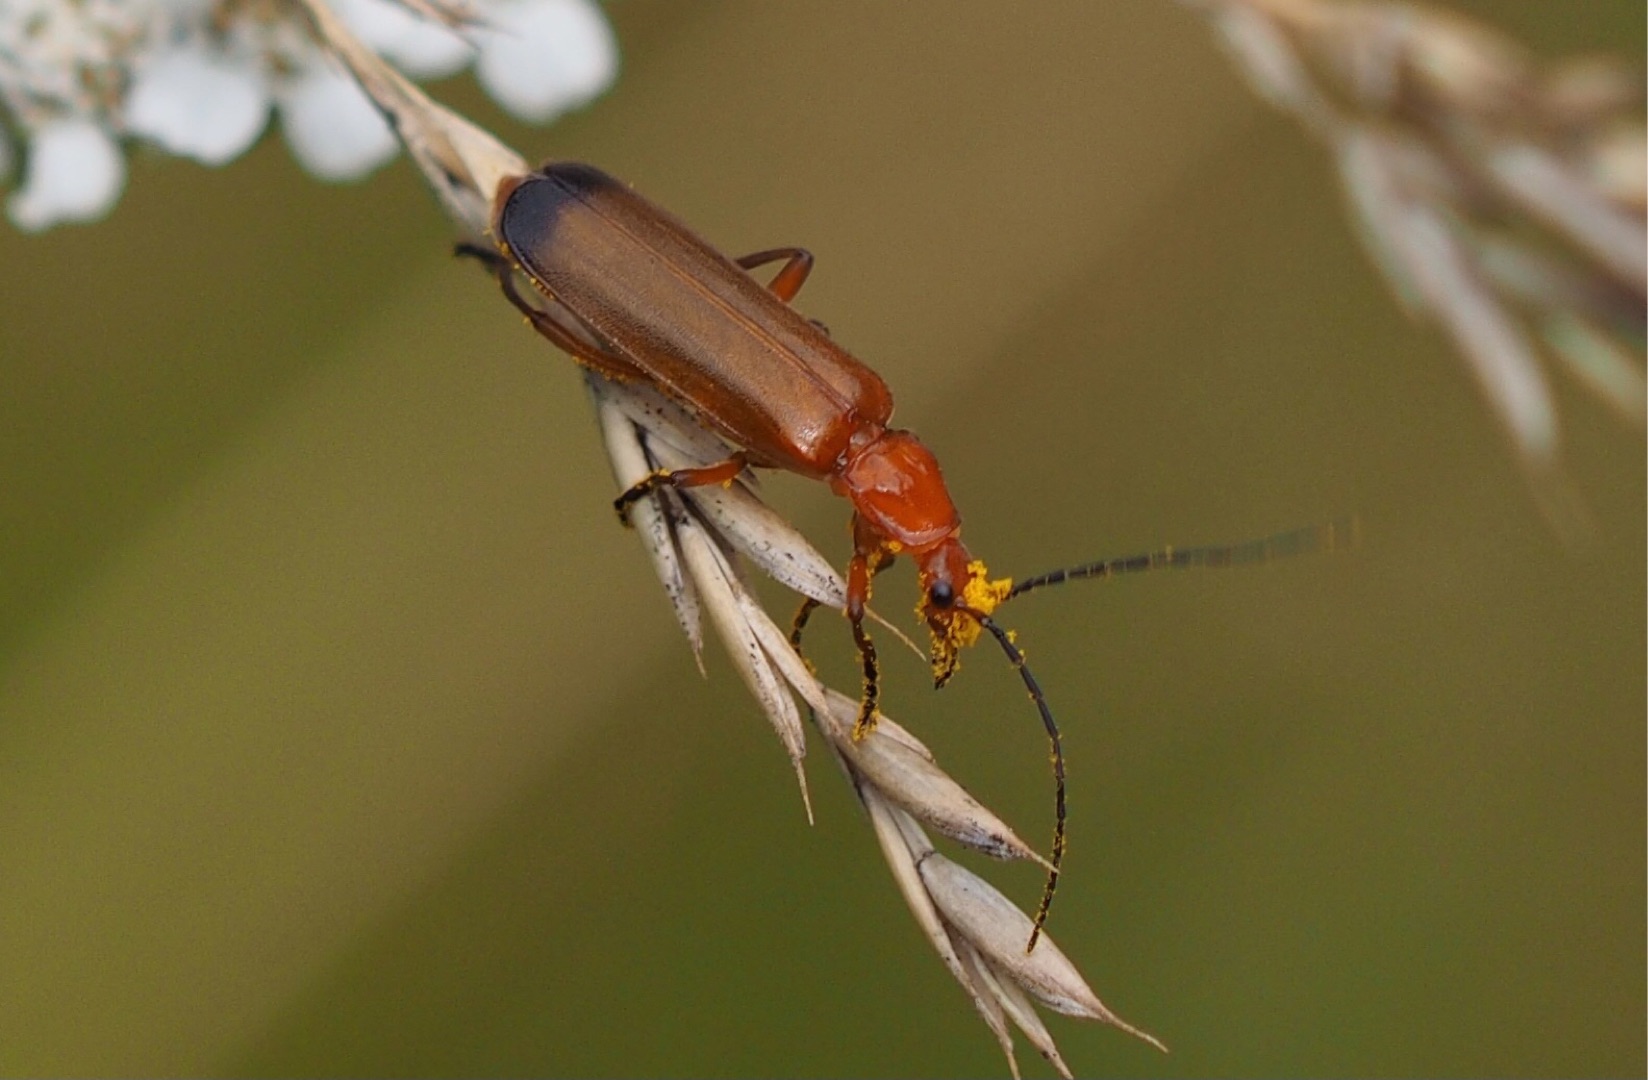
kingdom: Animalia
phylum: Arthropoda
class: Insecta
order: Coleoptera
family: Cantharidae
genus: Rhagonycha
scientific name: Rhagonycha fulva
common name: Præstebille
